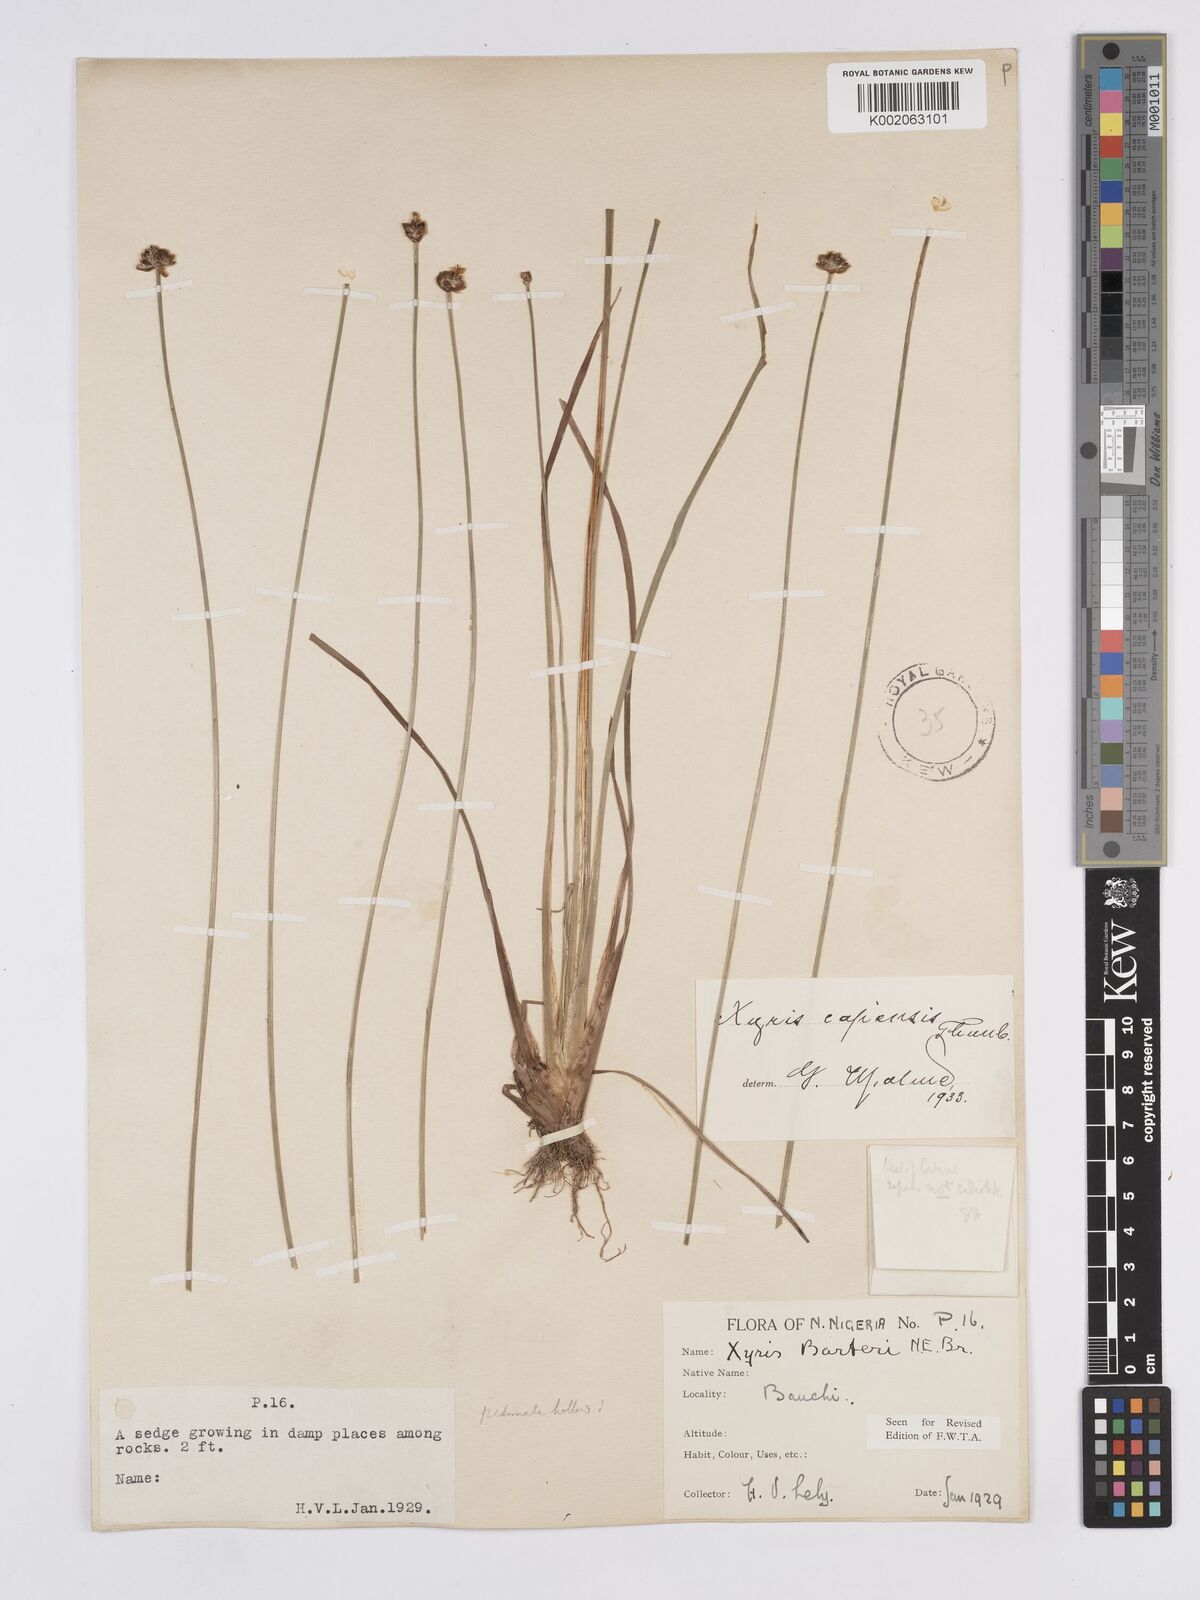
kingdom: Plantae
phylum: Tracheophyta
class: Liliopsida
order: Poales
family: Xyridaceae
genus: Xyris
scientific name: Xyris capensis
